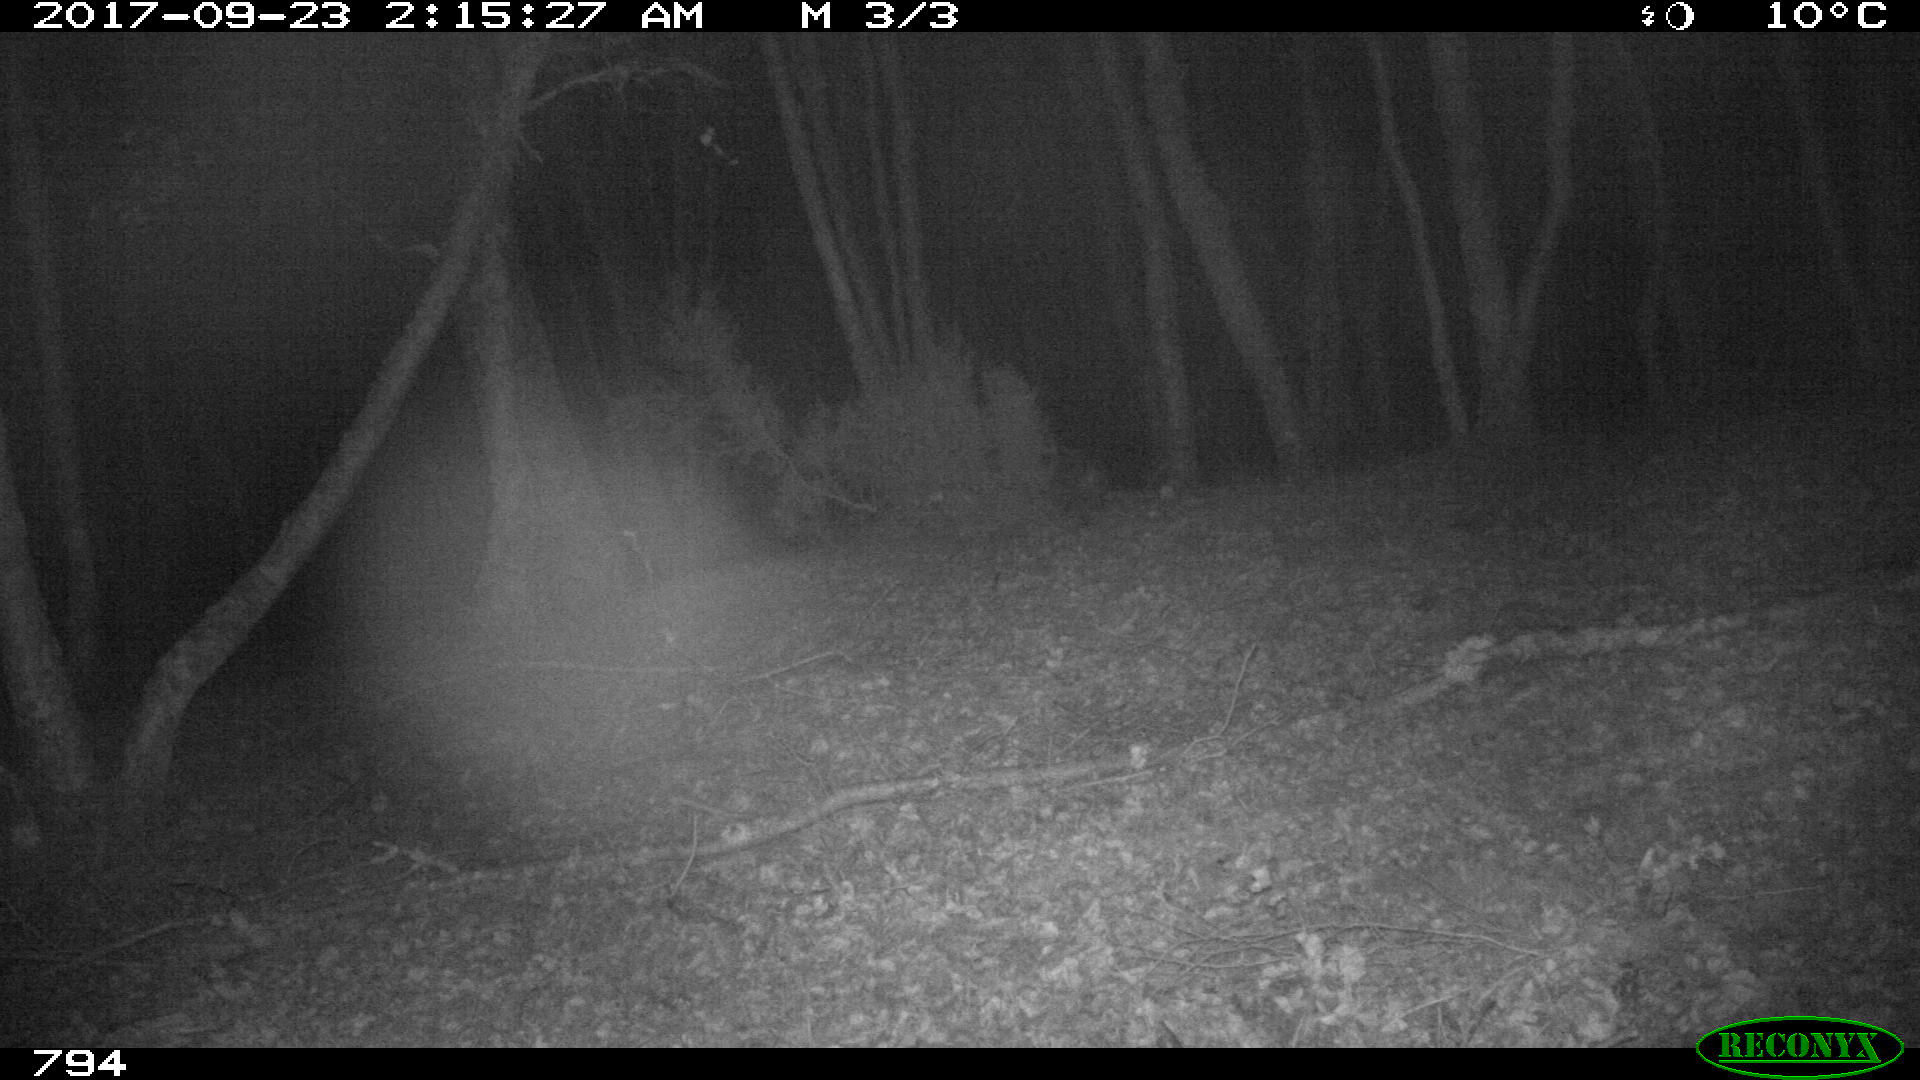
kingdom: Animalia
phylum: Chordata
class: Mammalia
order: Artiodactyla
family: Suidae
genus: Sus
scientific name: Sus scrofa
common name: Wild boar
